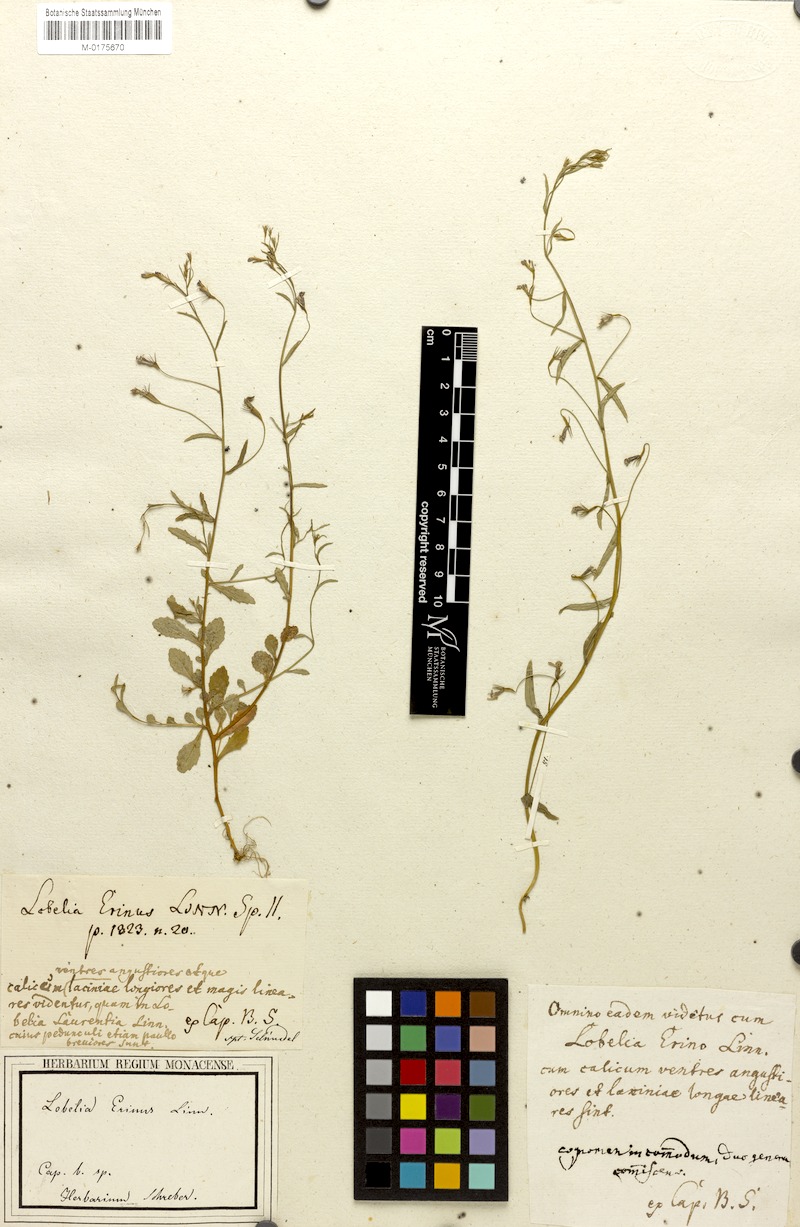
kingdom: Plantae
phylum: Tracheophyta
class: Magnoliopsida
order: Asterales
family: Campanulaceae
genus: Lobelia
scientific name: Lobelia erinus
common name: Edging lobelia
